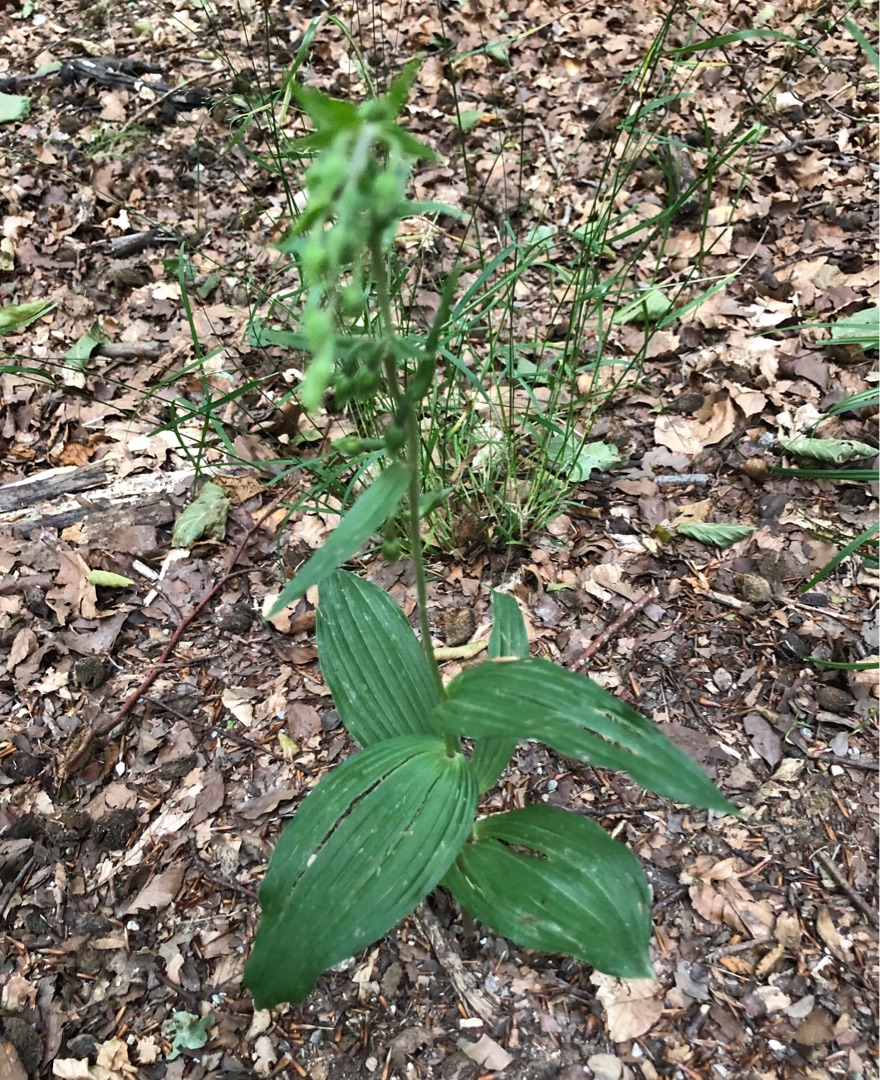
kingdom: Plantae
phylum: Tracheophyta
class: Liliopsida
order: Asparagales
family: Orchidaceae
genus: Epipactis
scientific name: Epipactis helleborine
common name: Skov-hullæbe
